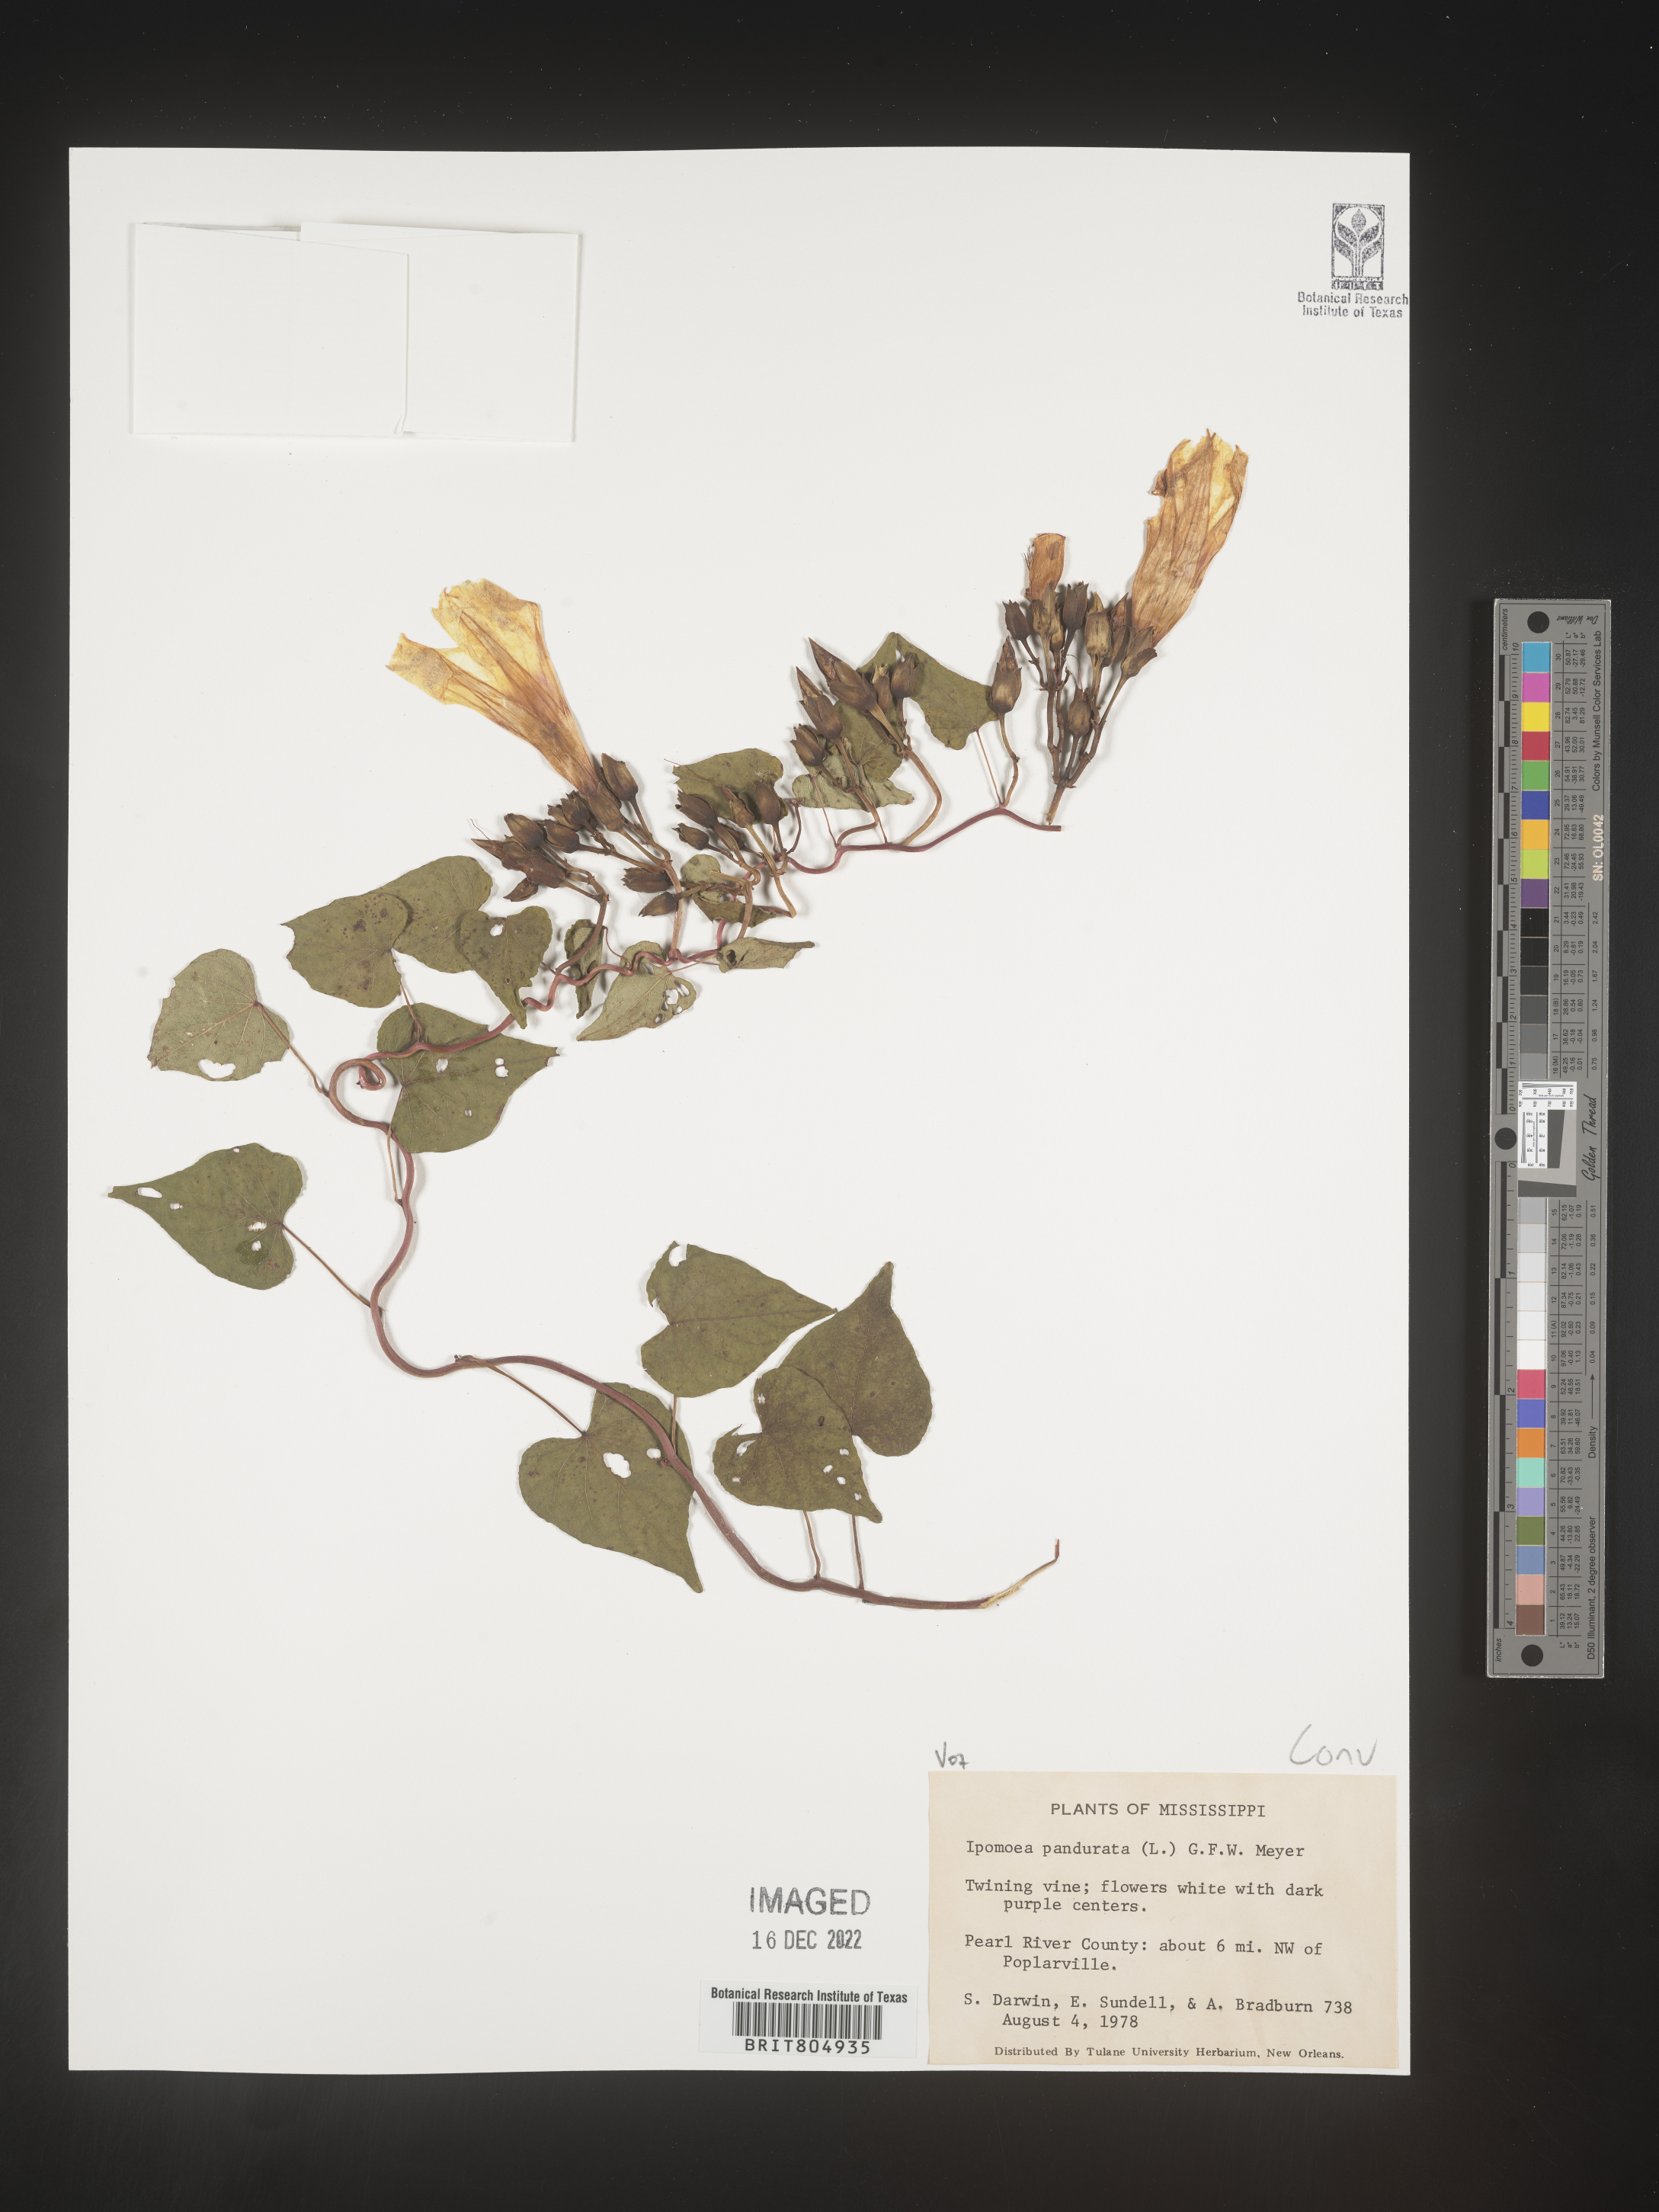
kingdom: Plantae
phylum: Tracheophyta
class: Magnoliopsida
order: Solanales
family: Convolvulaceae
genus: Ipomoea
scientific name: Ipomoea pandurata
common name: Man-of-the-earth
